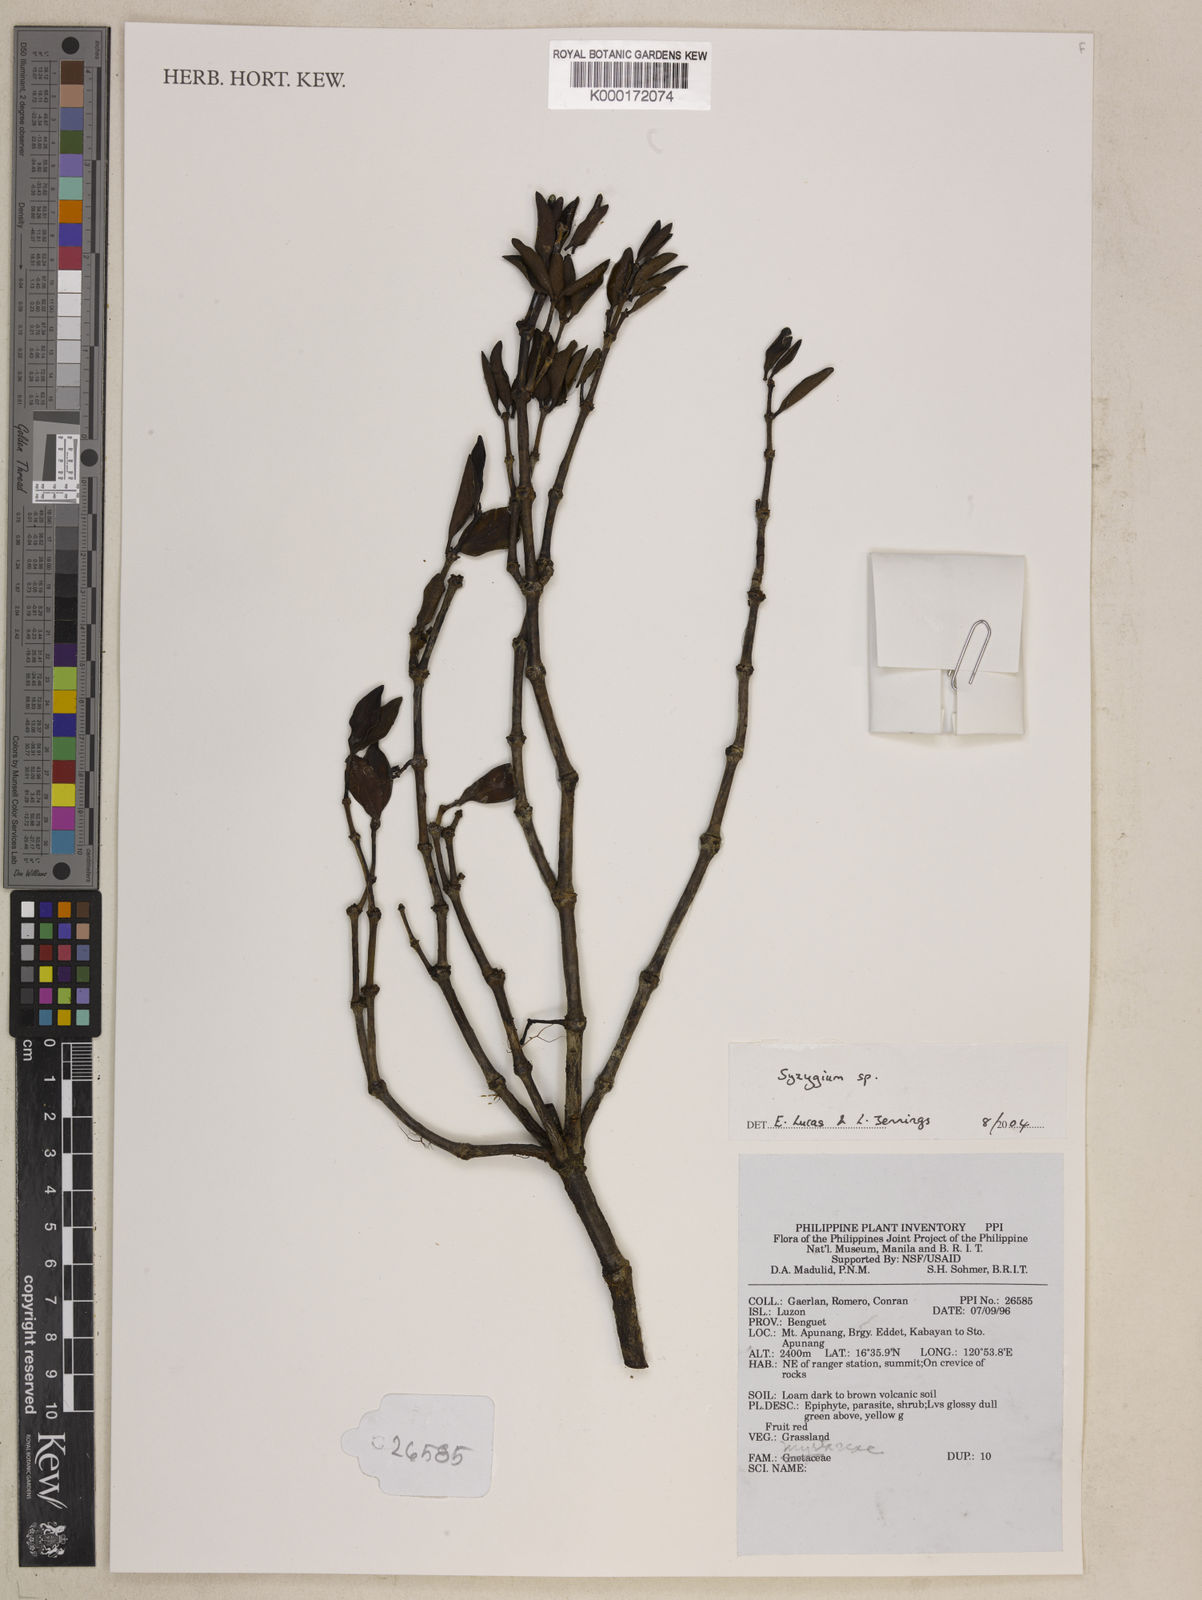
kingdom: Plantae
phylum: Tracheophyta
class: Magnoliopsida
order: Myrtales
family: Myrtaceae
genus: Syzygium
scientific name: Syzygium
